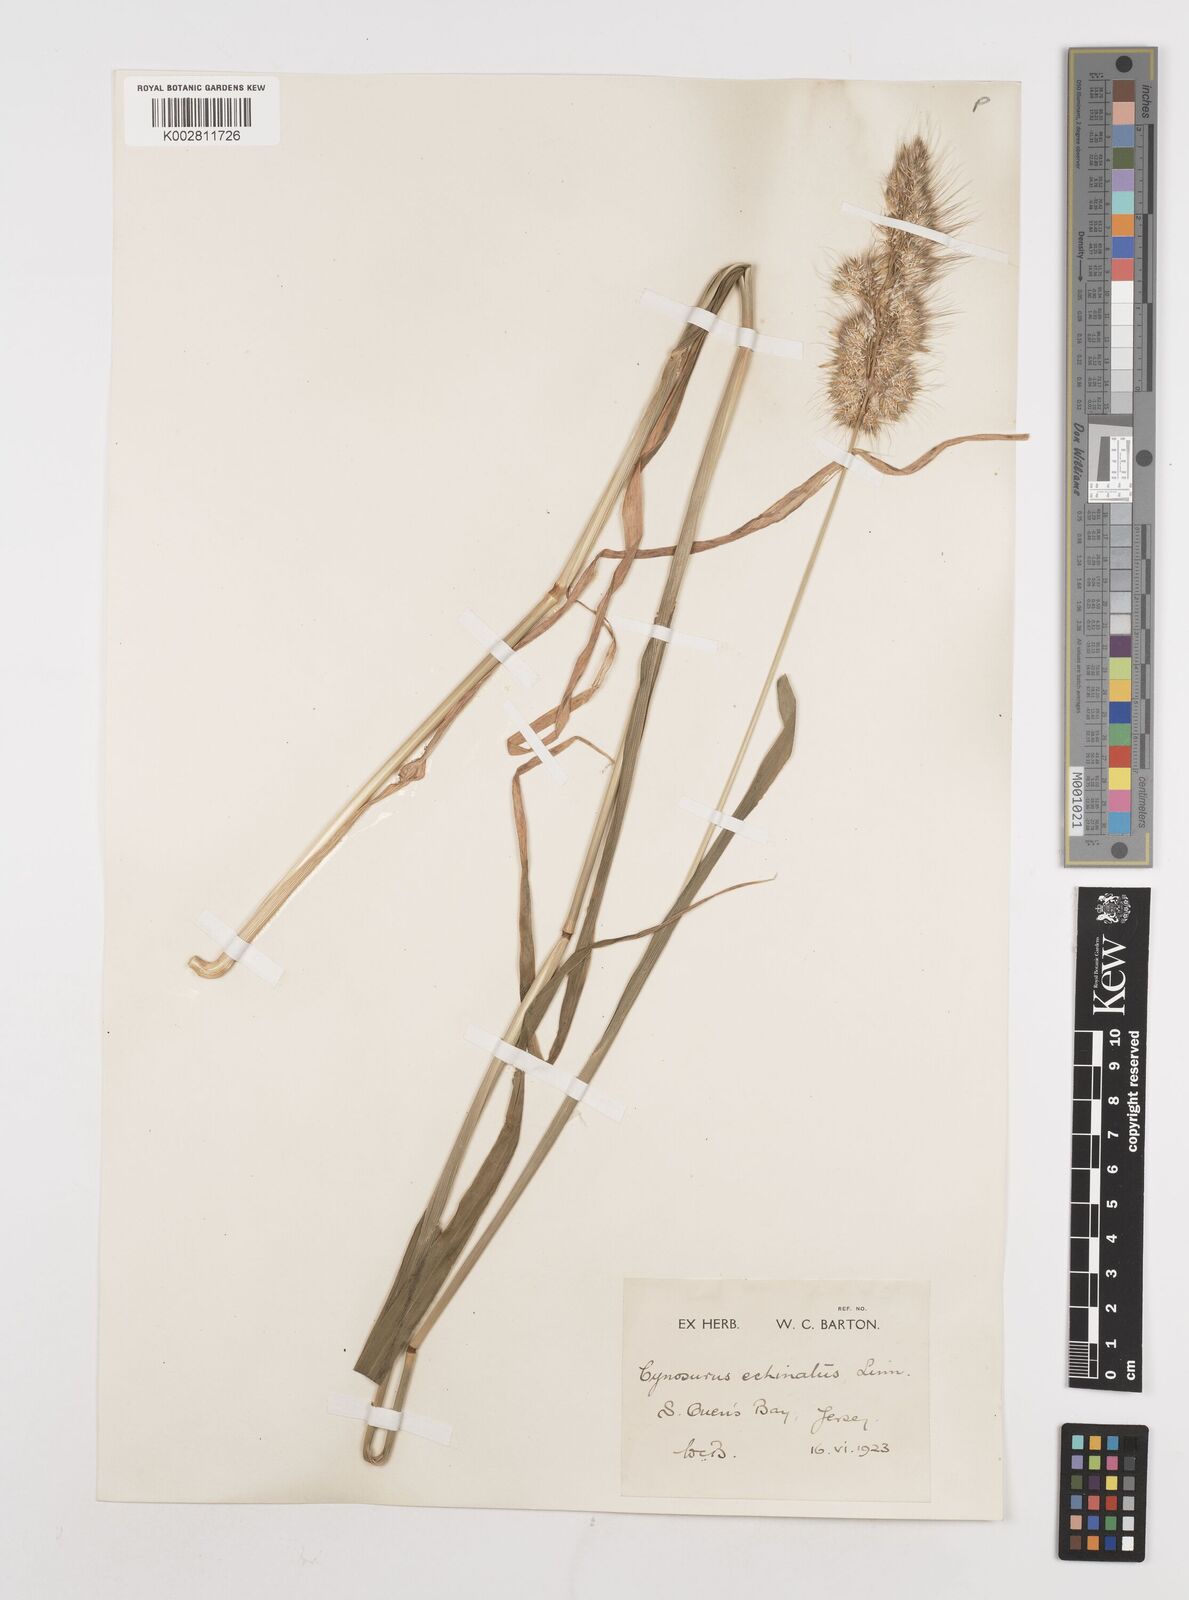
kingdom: Plantae
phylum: Tracheophyta
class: Liliopsida
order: Poales
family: Poaceae
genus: Cynosurus
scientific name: Cynosurus echinatus
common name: Rough dog's-tail
